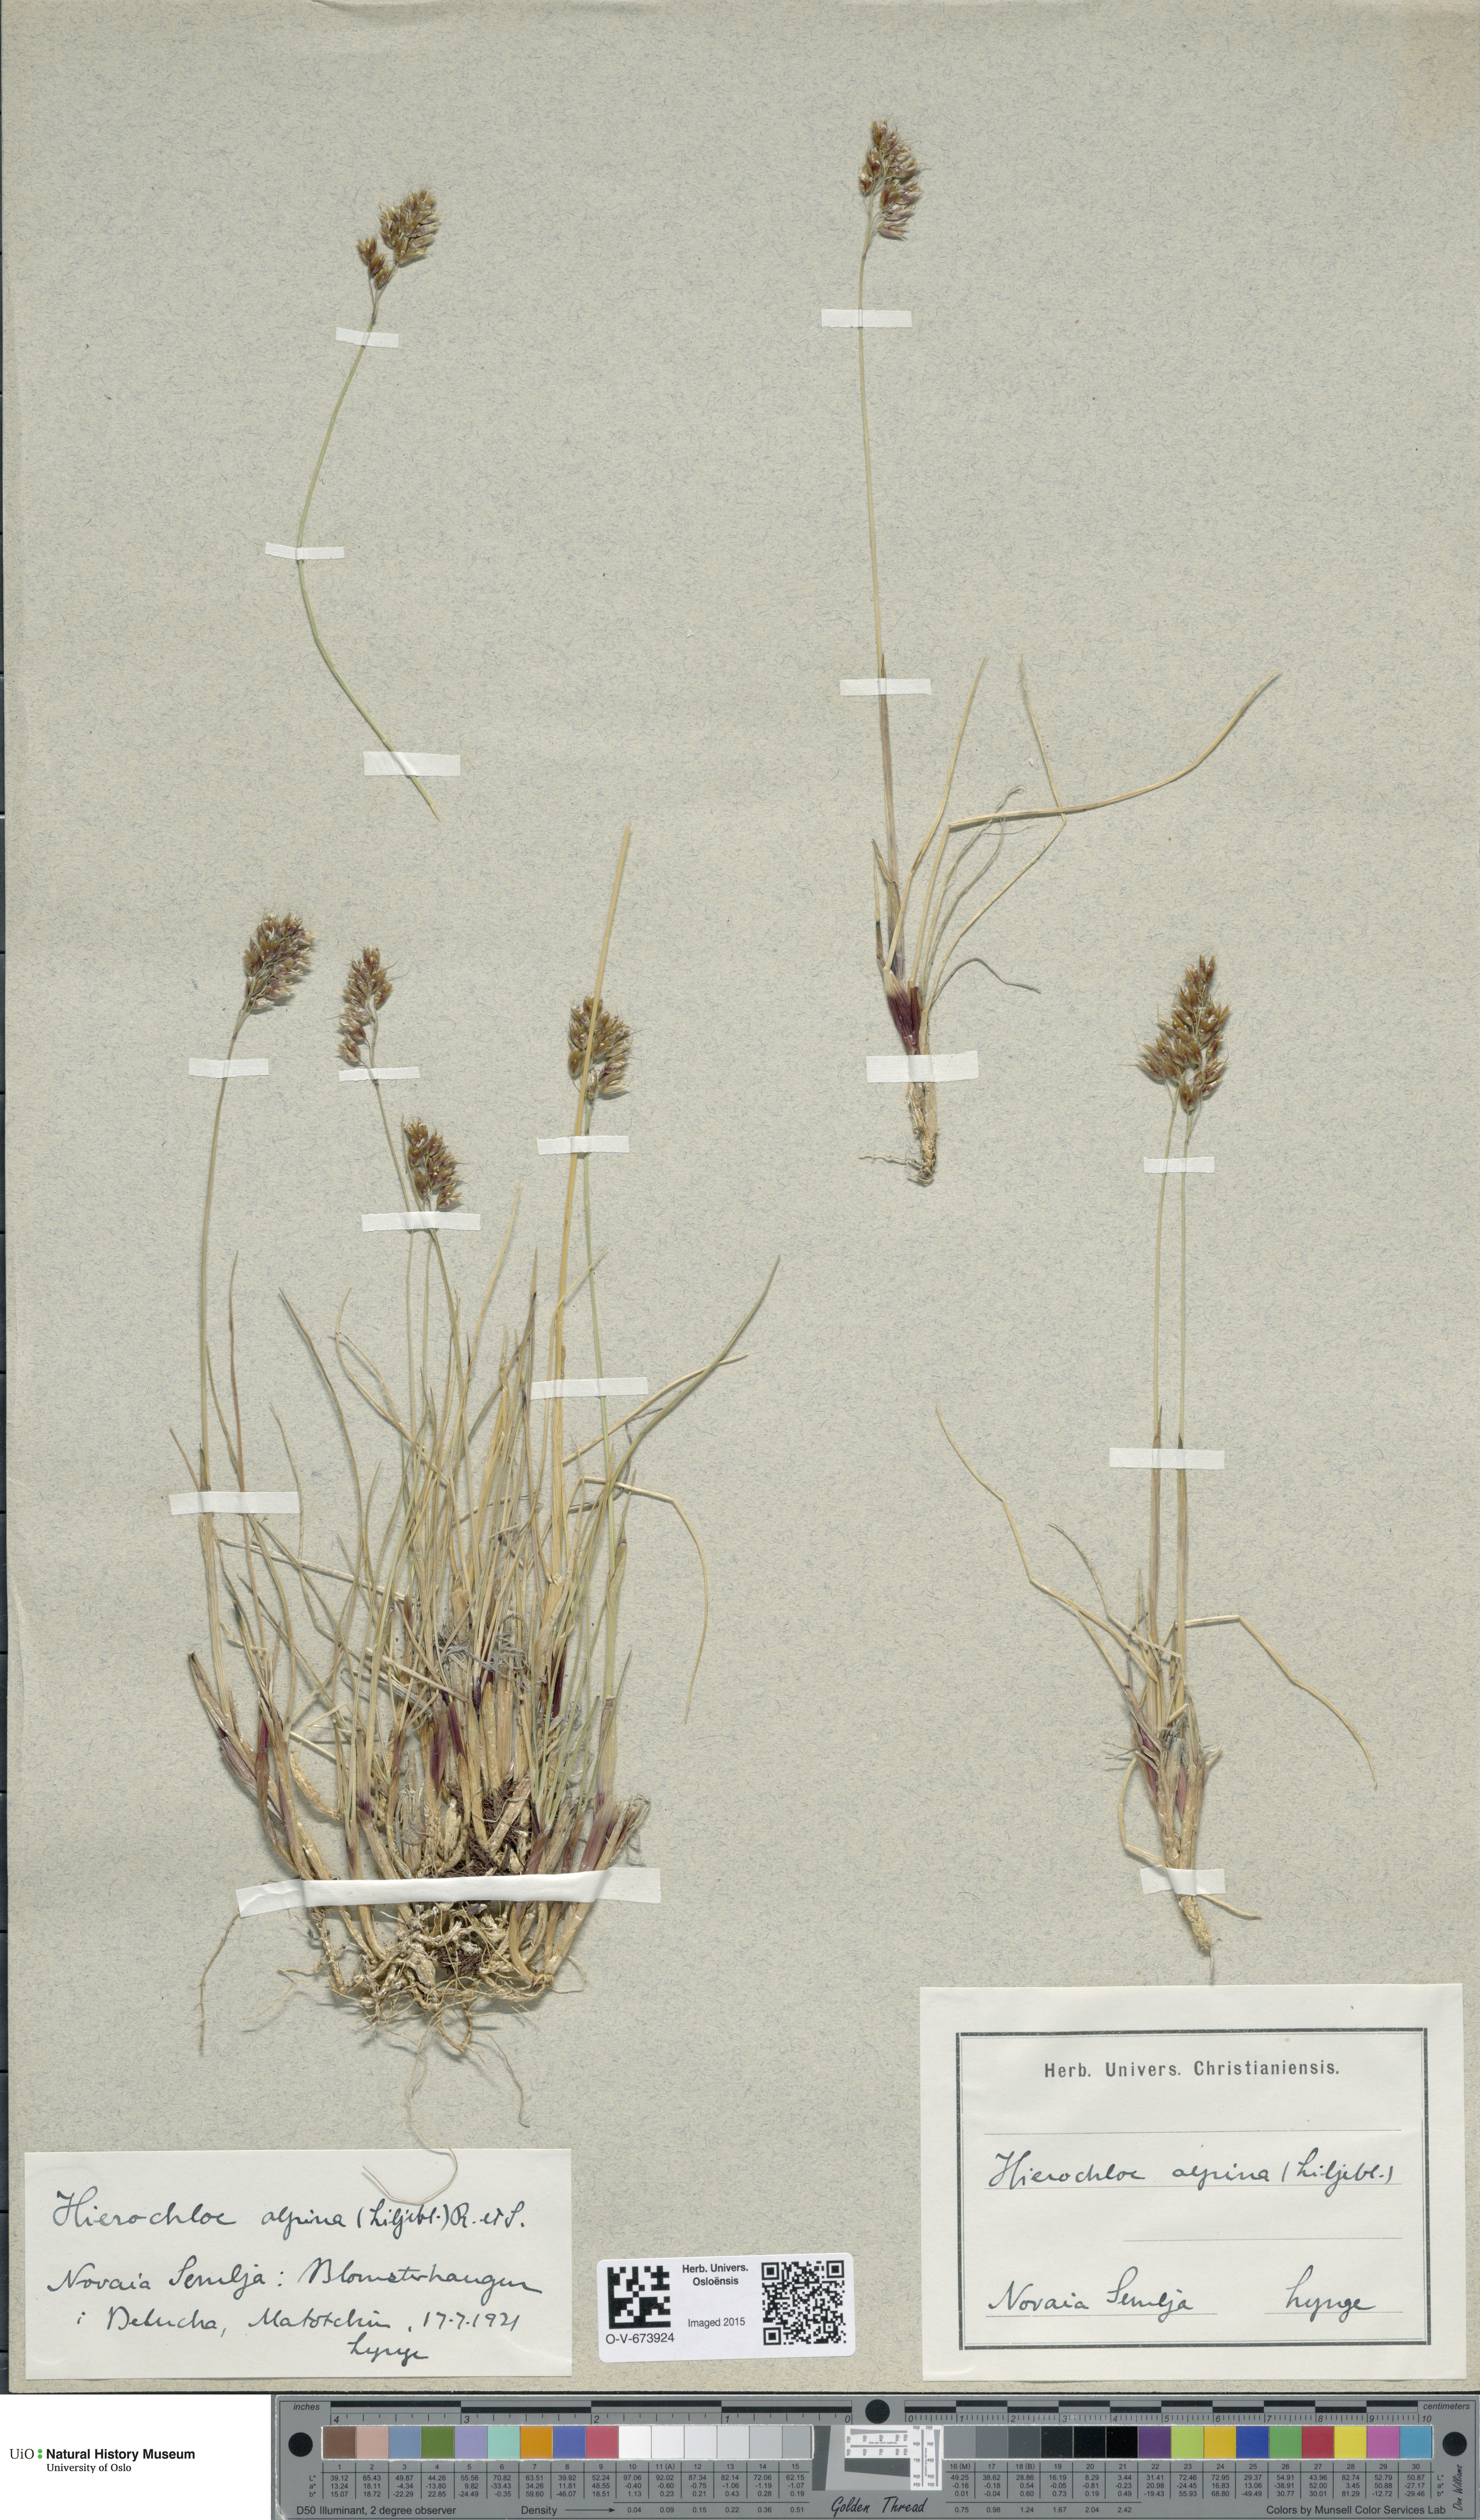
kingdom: Plantae
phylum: Tracheophyta
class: Liliopsida
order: Poales
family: Poaceae
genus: Anthoxanthum
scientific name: Anthoxanthum monticola
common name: Alpine sweetgrass
